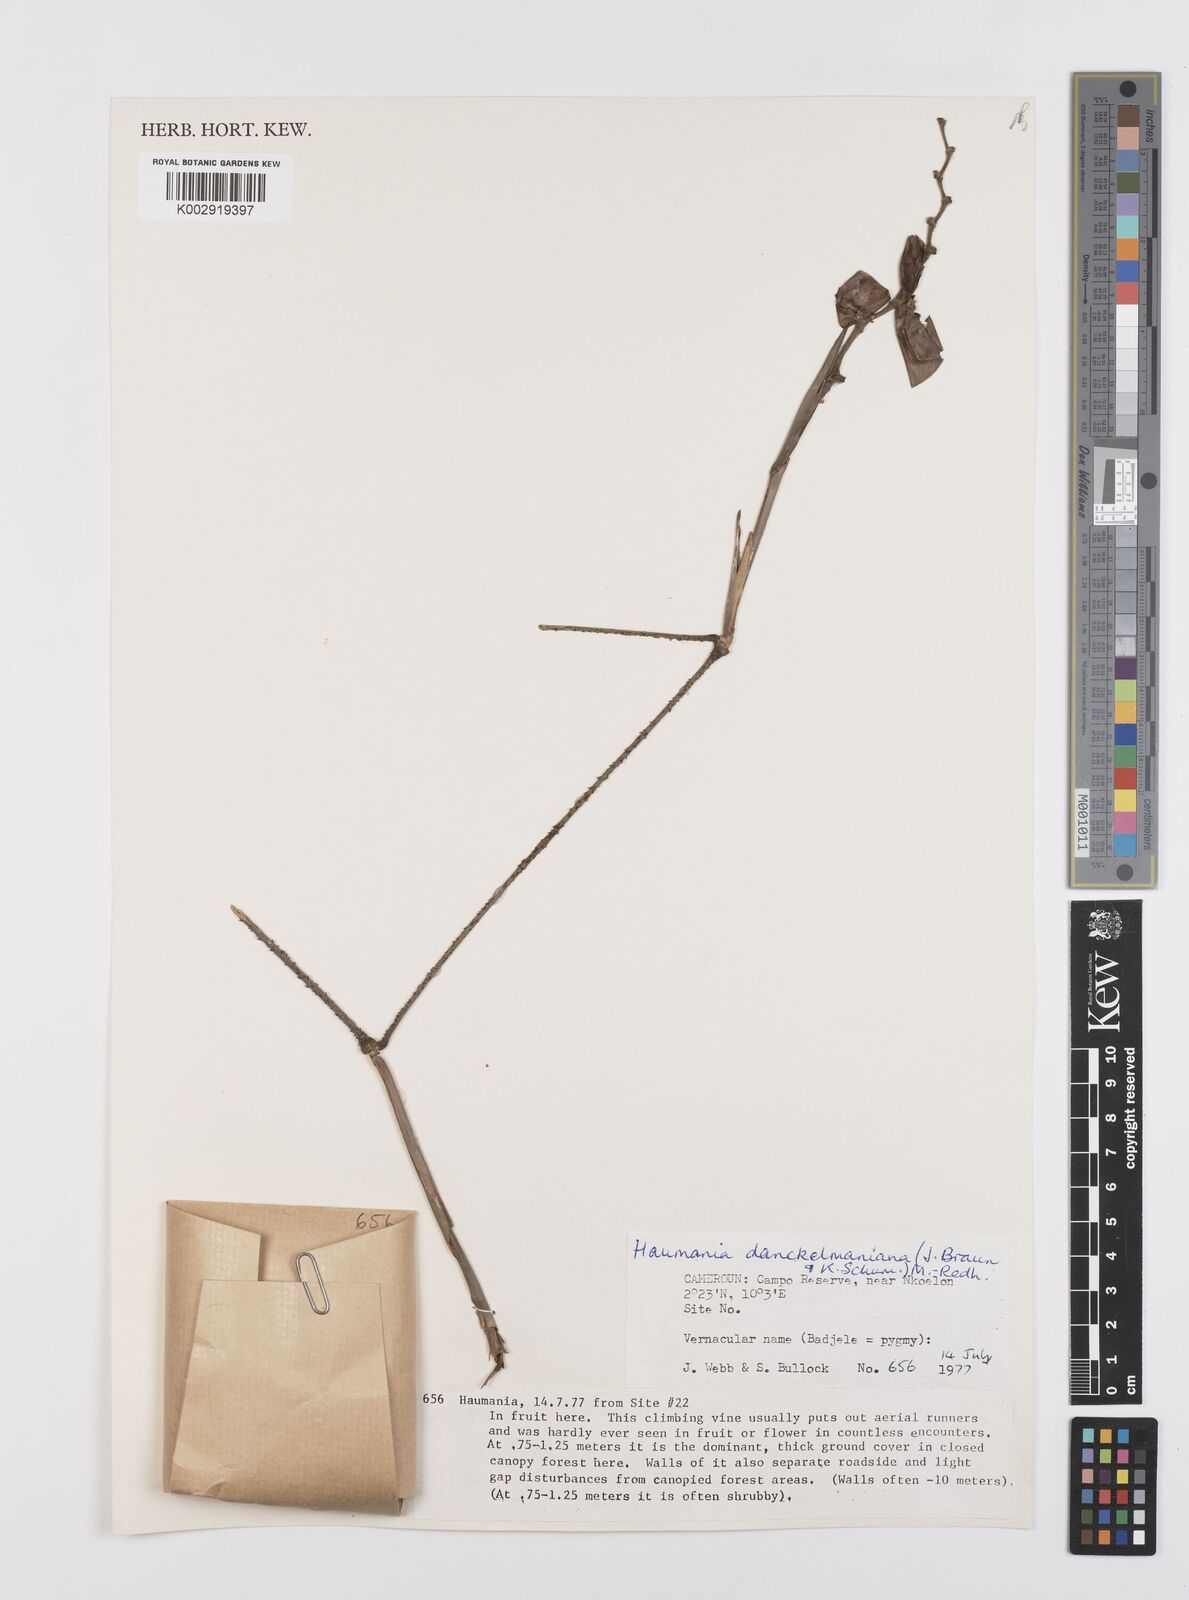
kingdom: Plantae
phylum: Tracheophyta
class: Liliopsida
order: Zingiberales
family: Marantaceae
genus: Haumania
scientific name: Haumania danckelmaniana
